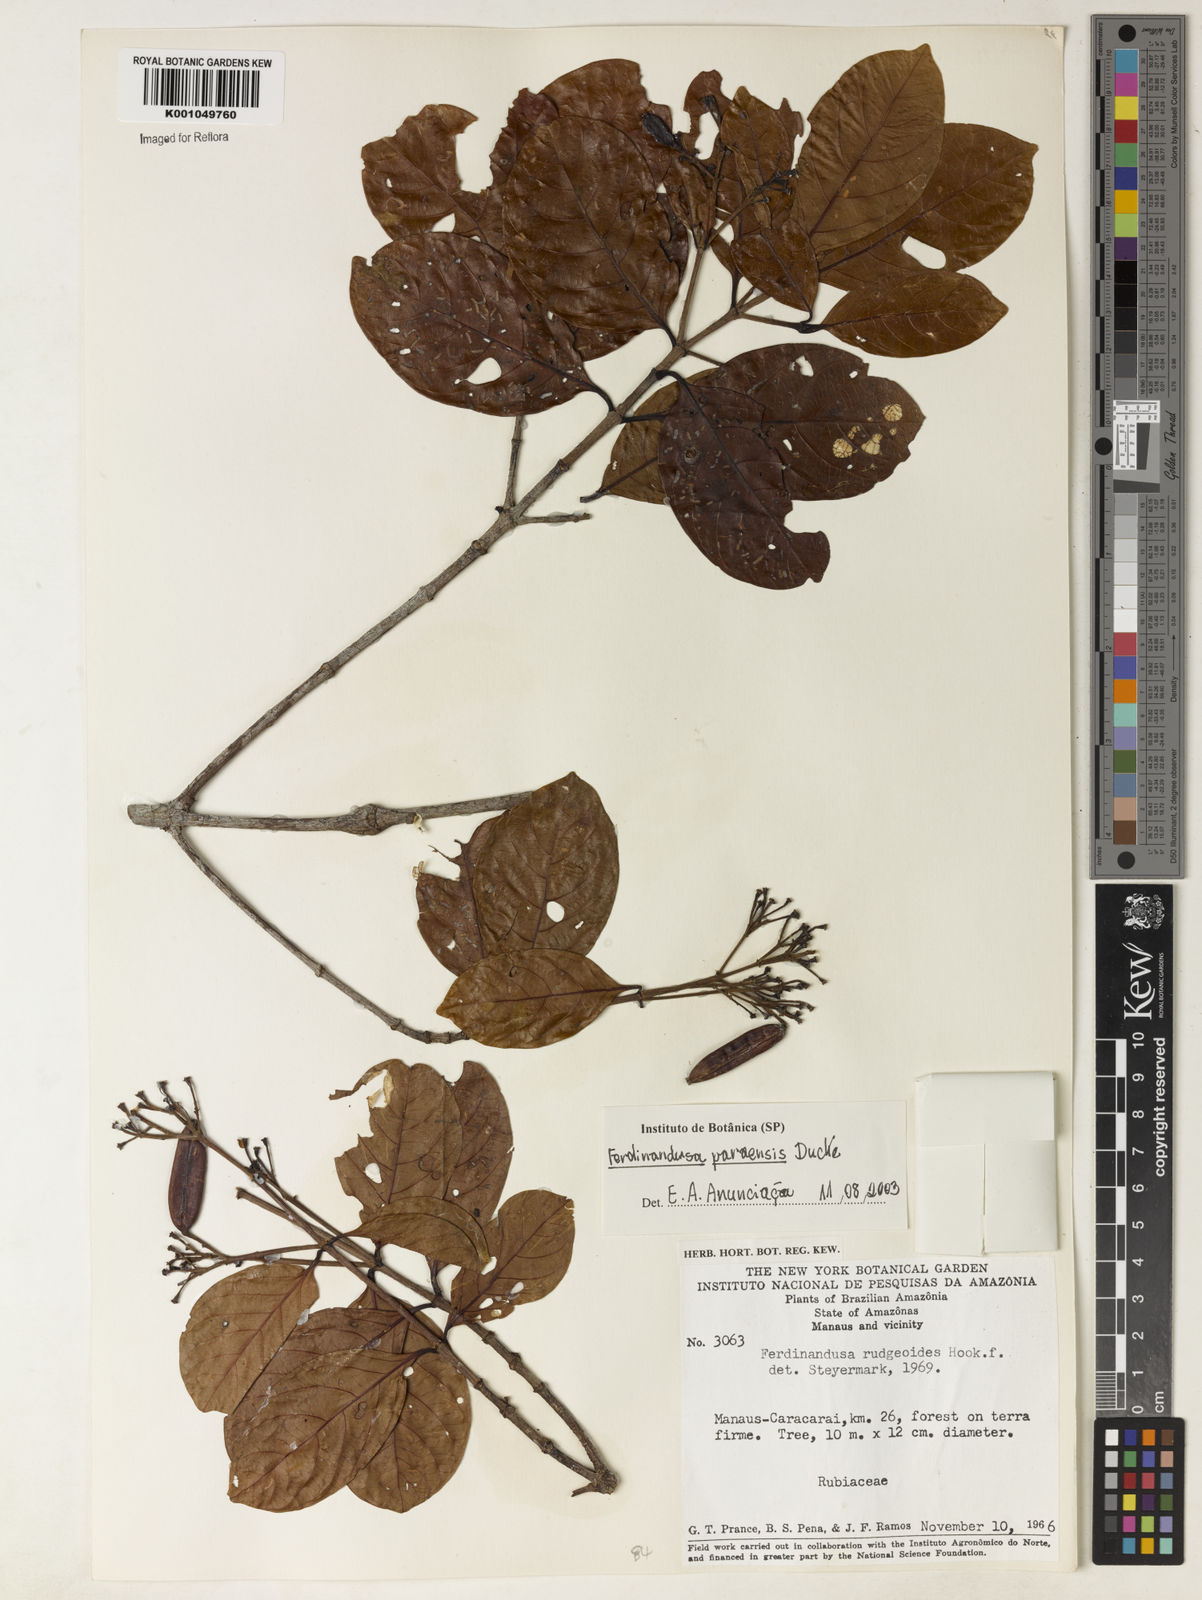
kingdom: Plantae
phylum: Tracheophyta
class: Magnoliopsida
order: Gentianales
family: Rubiaceae
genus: Ferdinandusa
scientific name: Ferdinandusa paraensis
